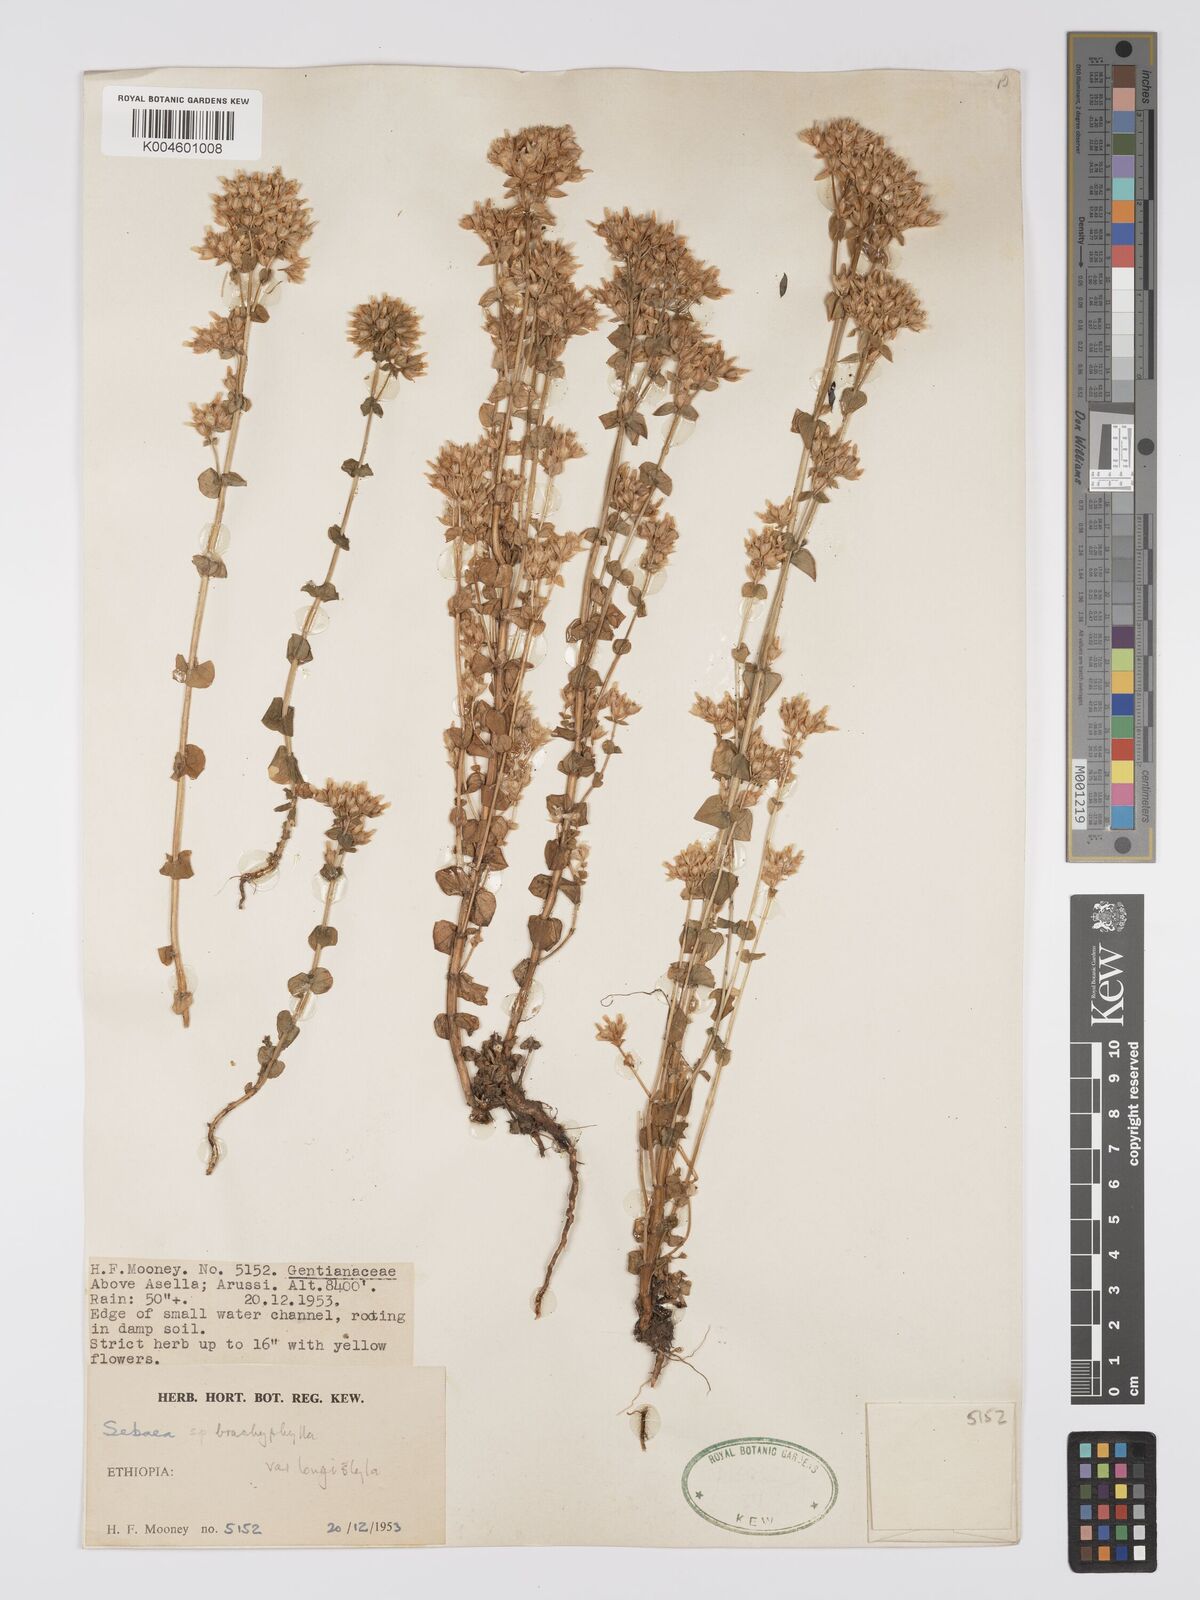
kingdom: Plantae
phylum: Tracheophyta
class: Magnoliopsida
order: Gentianales
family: Gentianaceae
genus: Sebaea
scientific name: Sebaea brachyphylla
